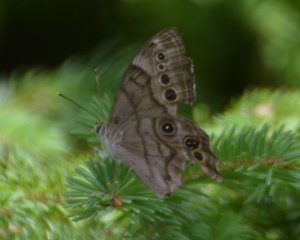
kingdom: Animalia
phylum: Arthropoda
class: Insecta
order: Lepidoptera
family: Nymphalidae
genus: Lethe
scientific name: Lethe anthedon
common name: Northern Pearly-Eye
